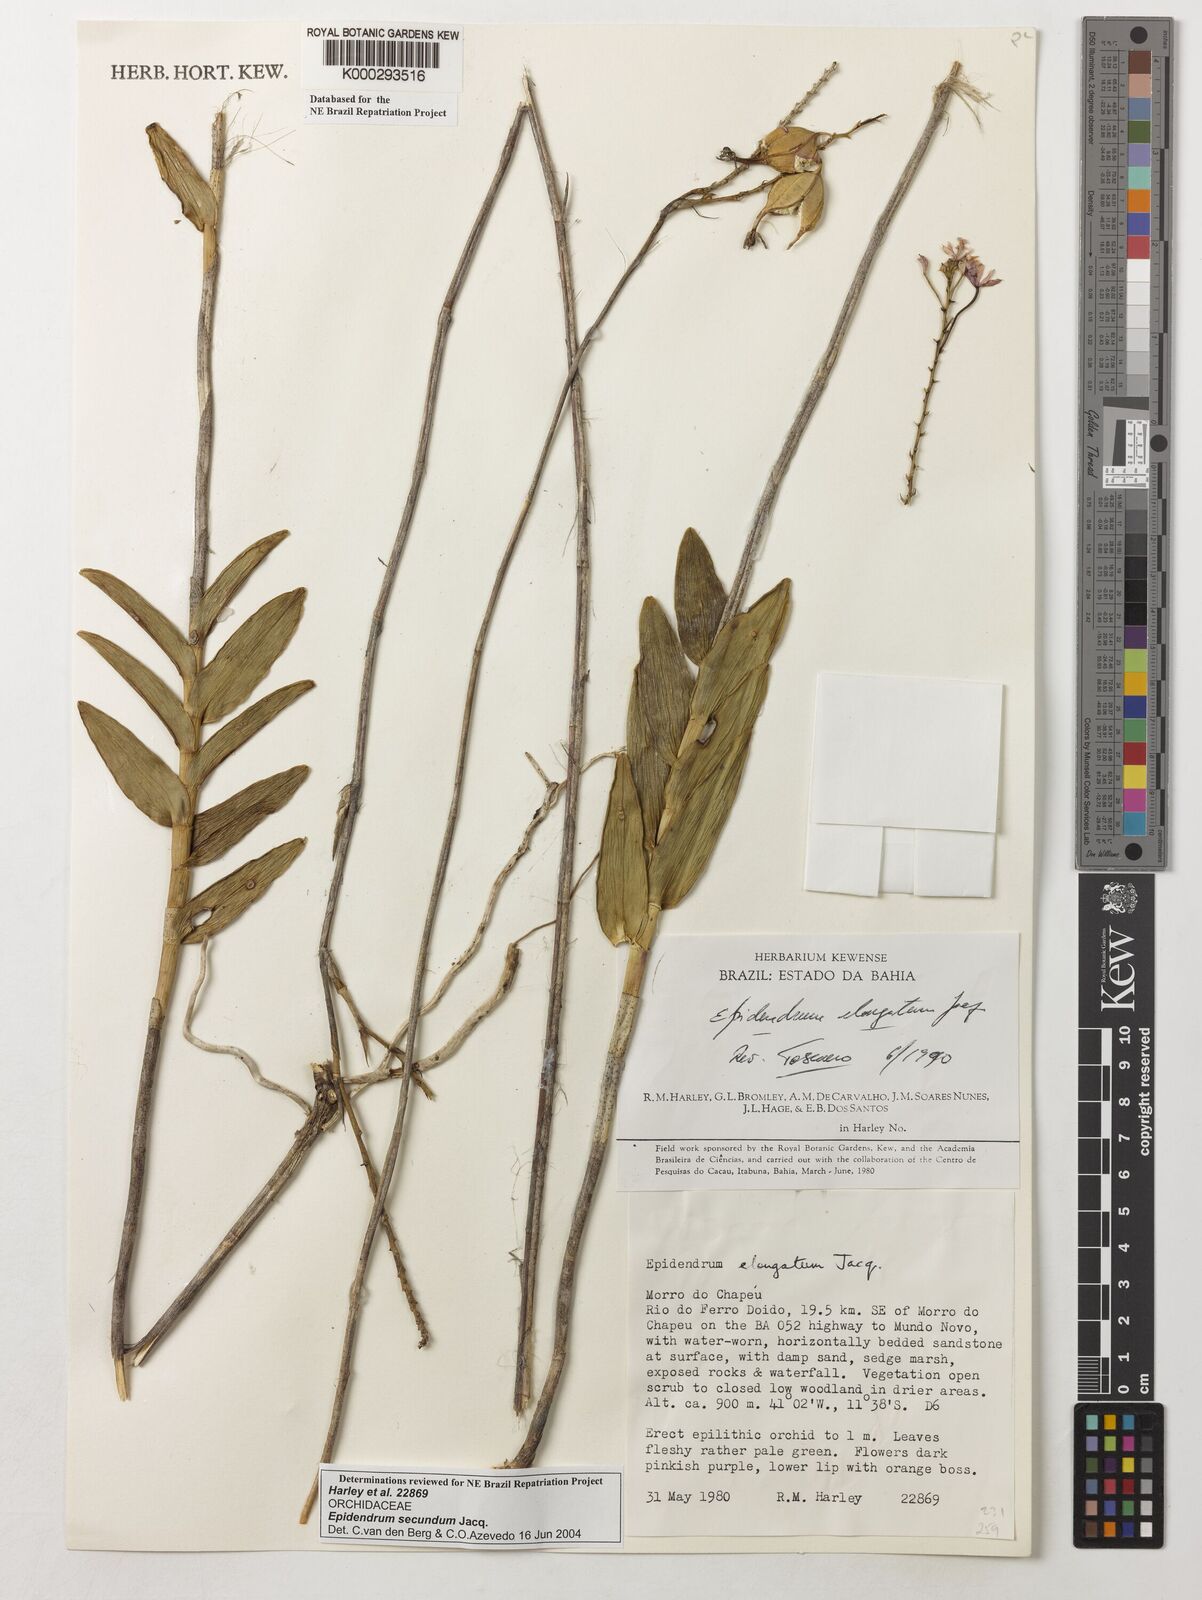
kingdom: Plantae
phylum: Tracheophyta
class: Liliopsida
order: Asparagales
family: Orchidaceae
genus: Epidendrum
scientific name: Epidendrum secundum
